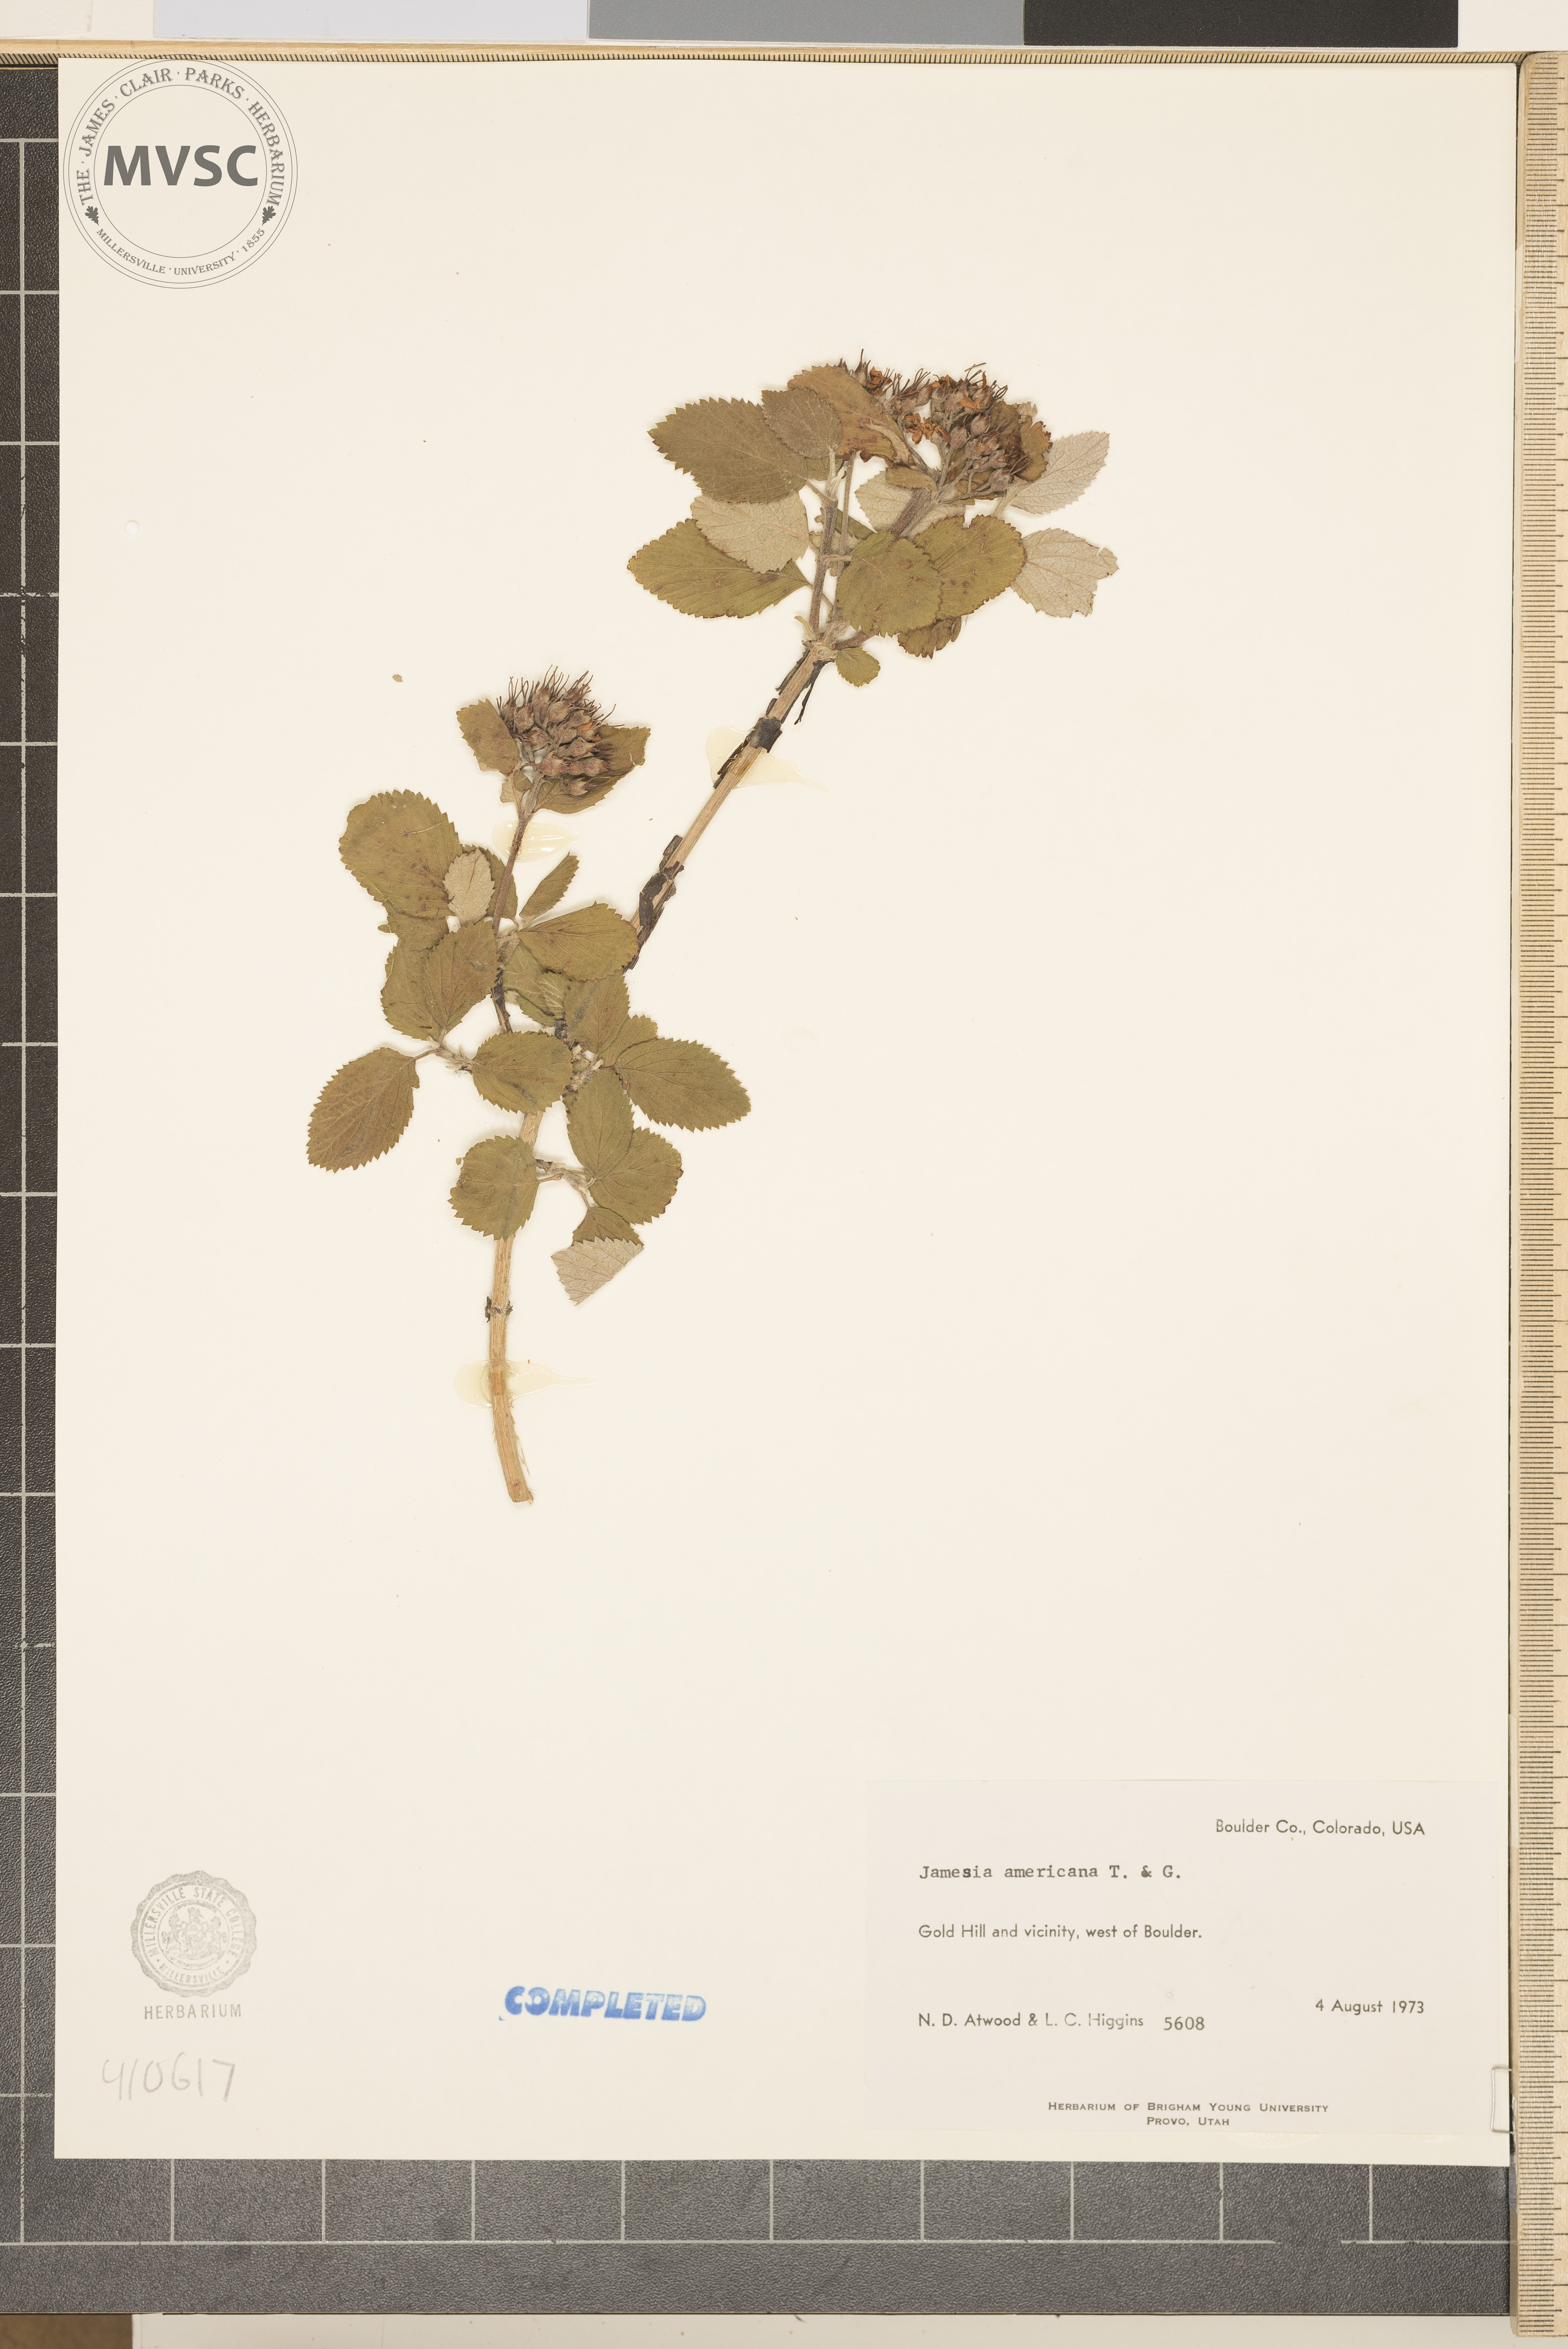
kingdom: Plantae
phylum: Tracheophyta
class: Magnoliopsida
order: Cornales
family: Hydrangeaceae
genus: Jamesia
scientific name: Jamesia americana
